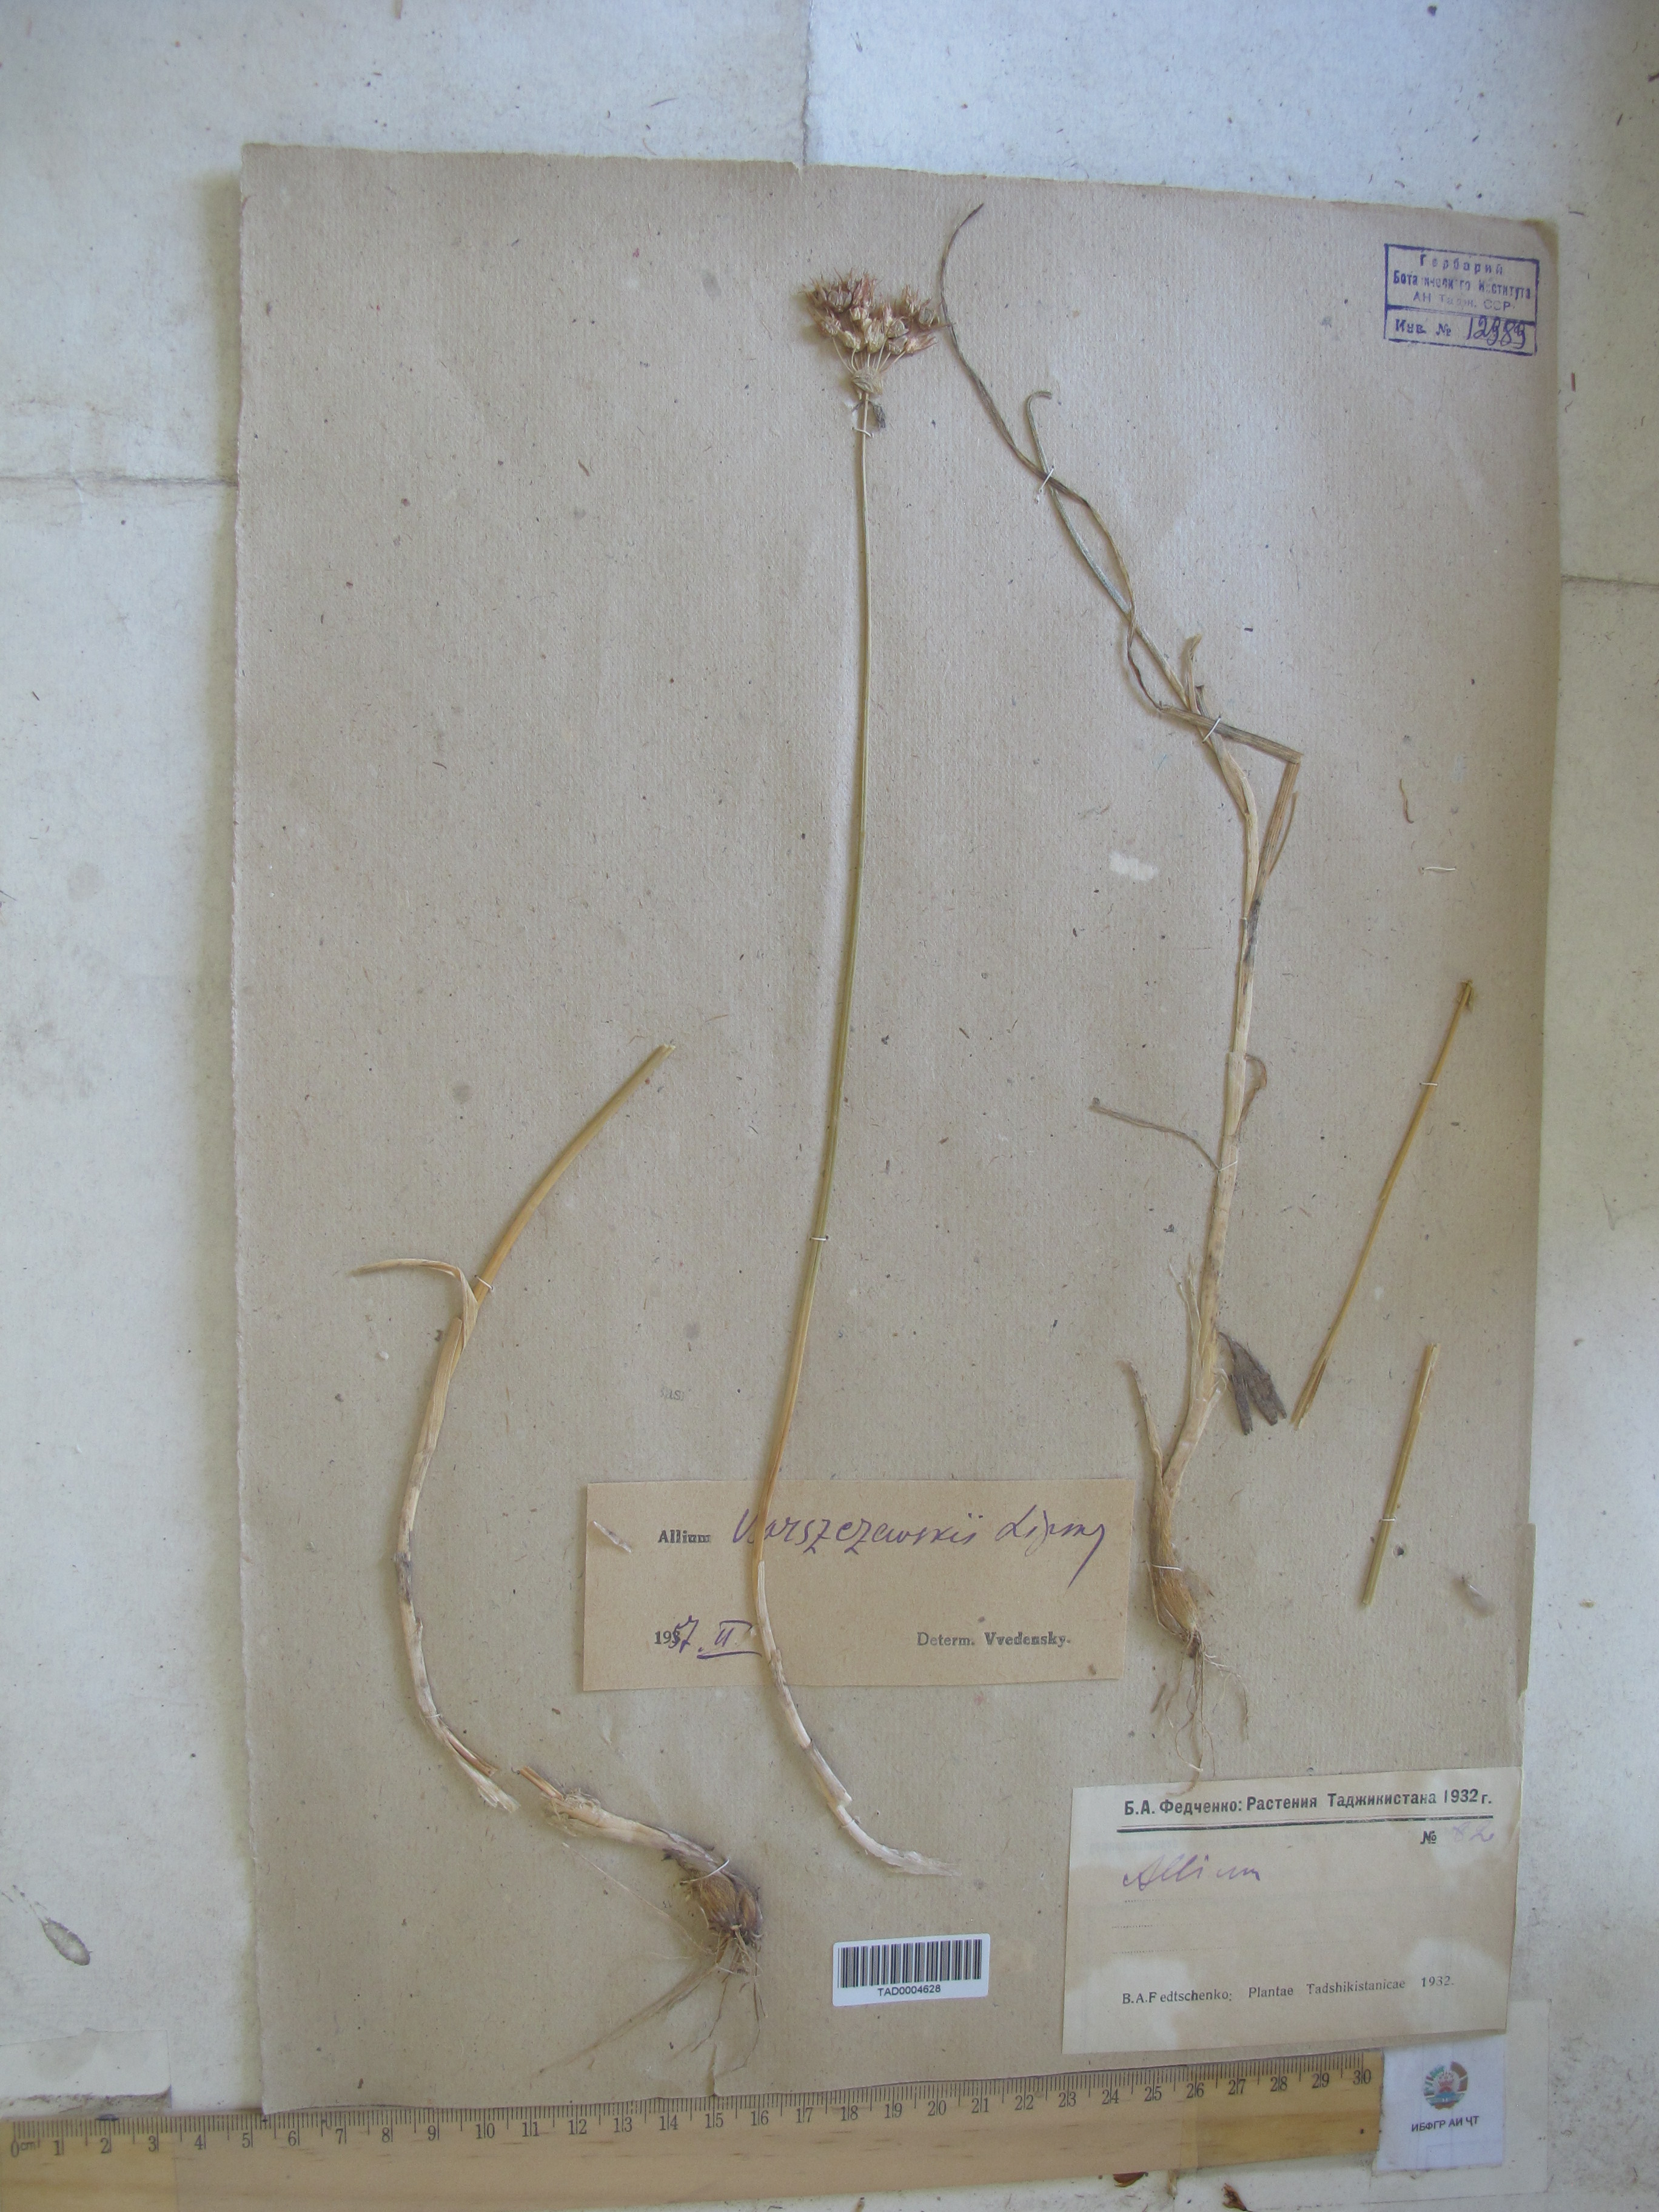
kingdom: Plantae
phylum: Tracheophyta
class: Liliopsida
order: Asparagales
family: Amaryllidaceae
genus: Allium
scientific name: Allium barsczewskii
